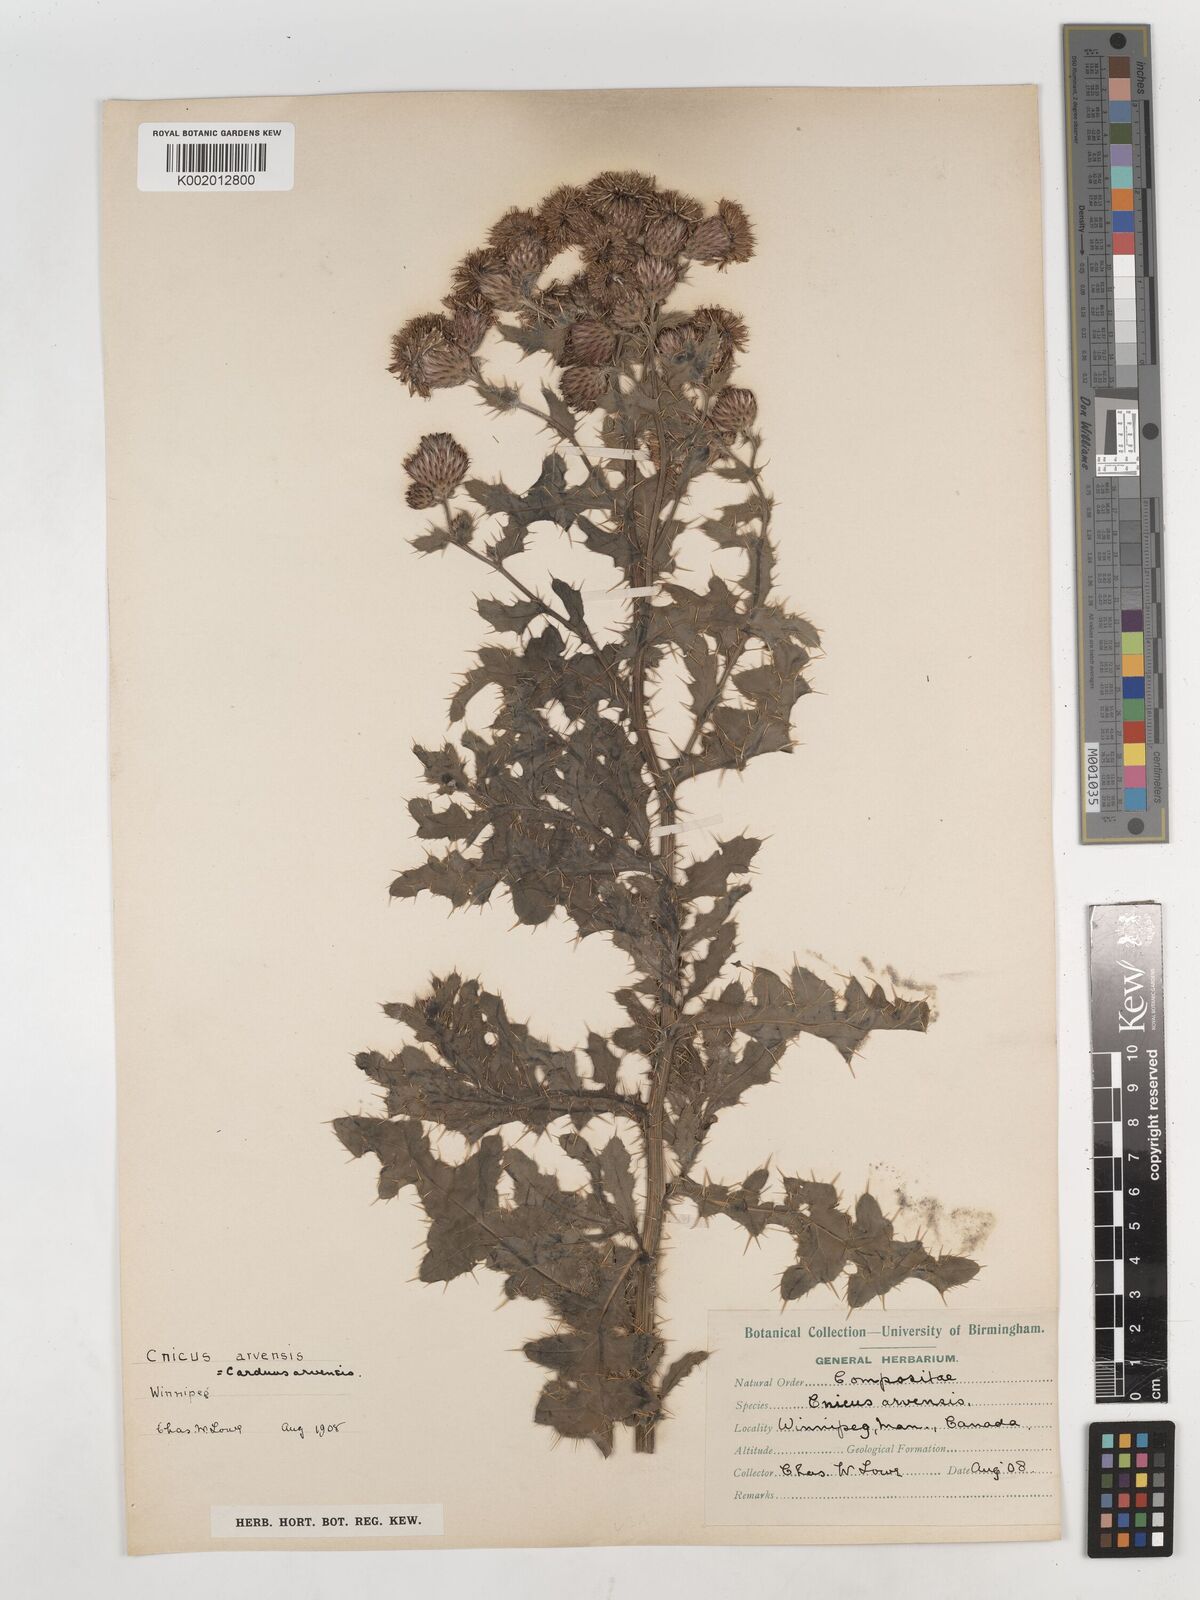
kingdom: Plantae
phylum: Tracheophyta
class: Magnoliopsida
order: Asterales
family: Asteraceae
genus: Cirsium
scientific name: Cirsium arvense
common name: Creeping thistle
